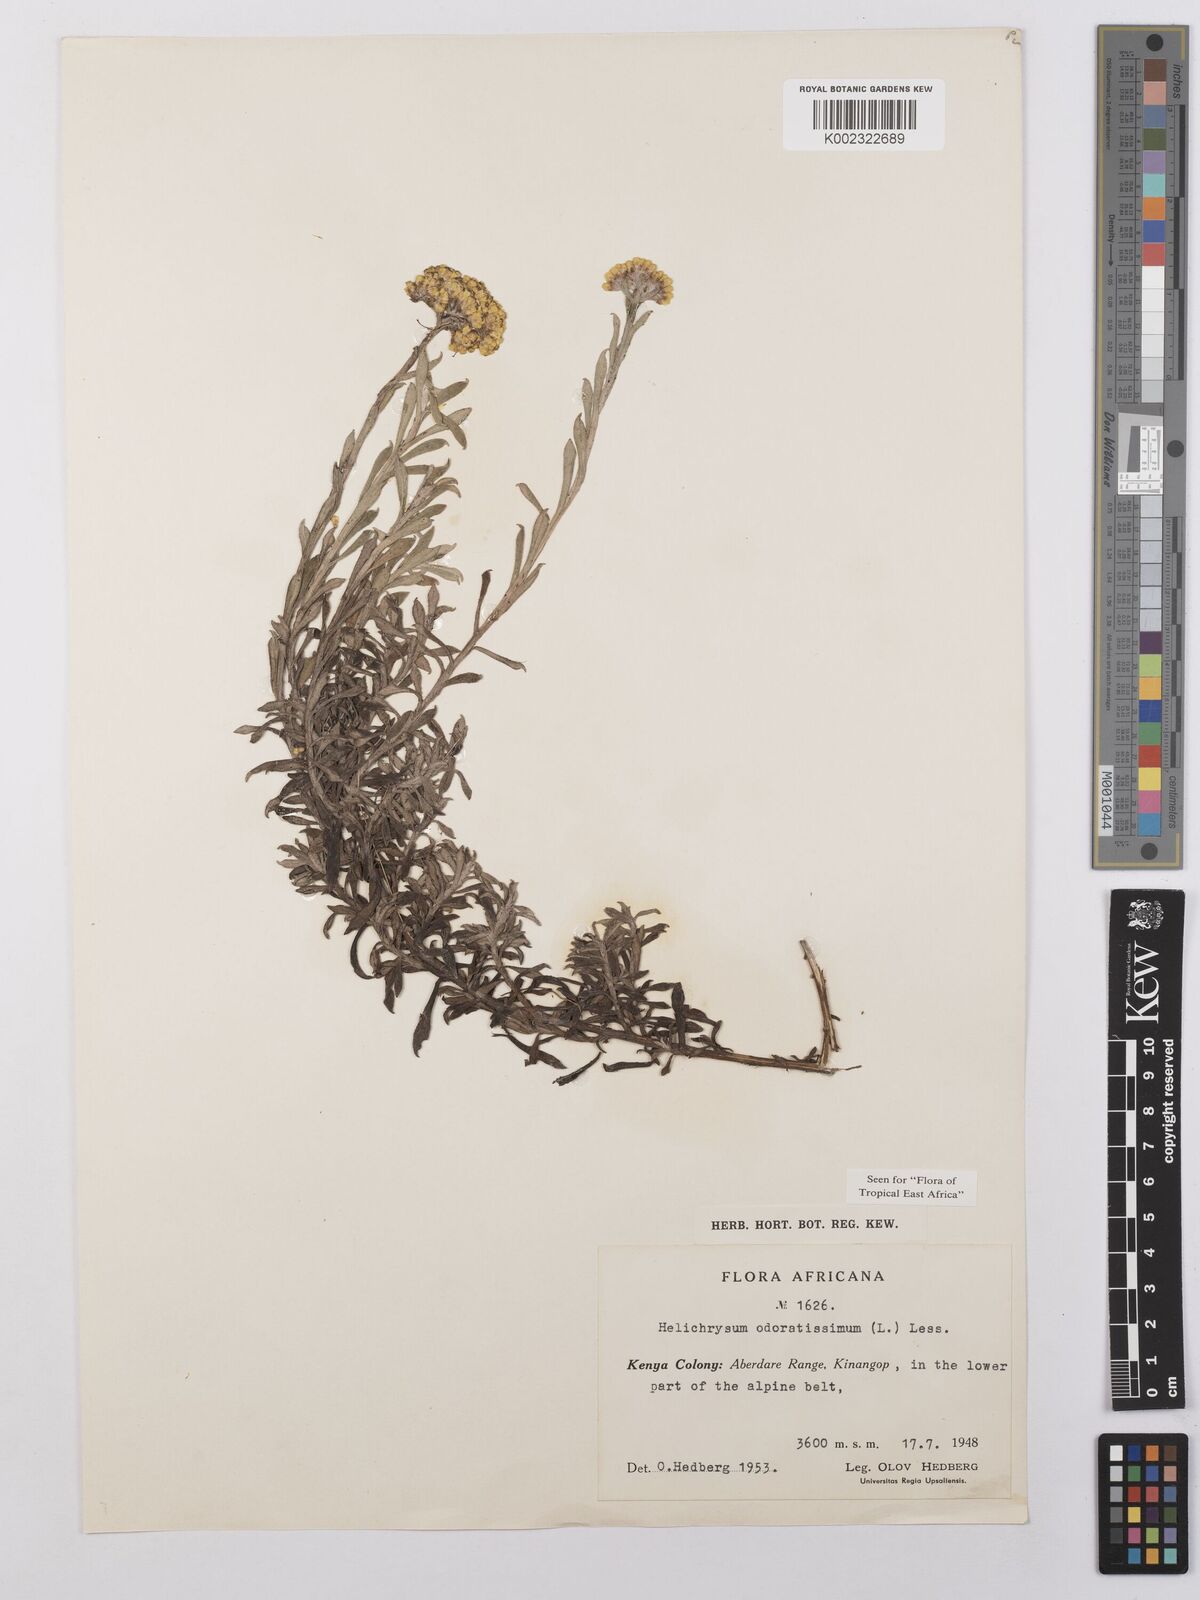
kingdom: Plantae
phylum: Tracheophyta
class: Magnoliopsida
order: Asterales
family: Asteraceae
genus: Helichrysum
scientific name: Helichrysum odoratissimum
